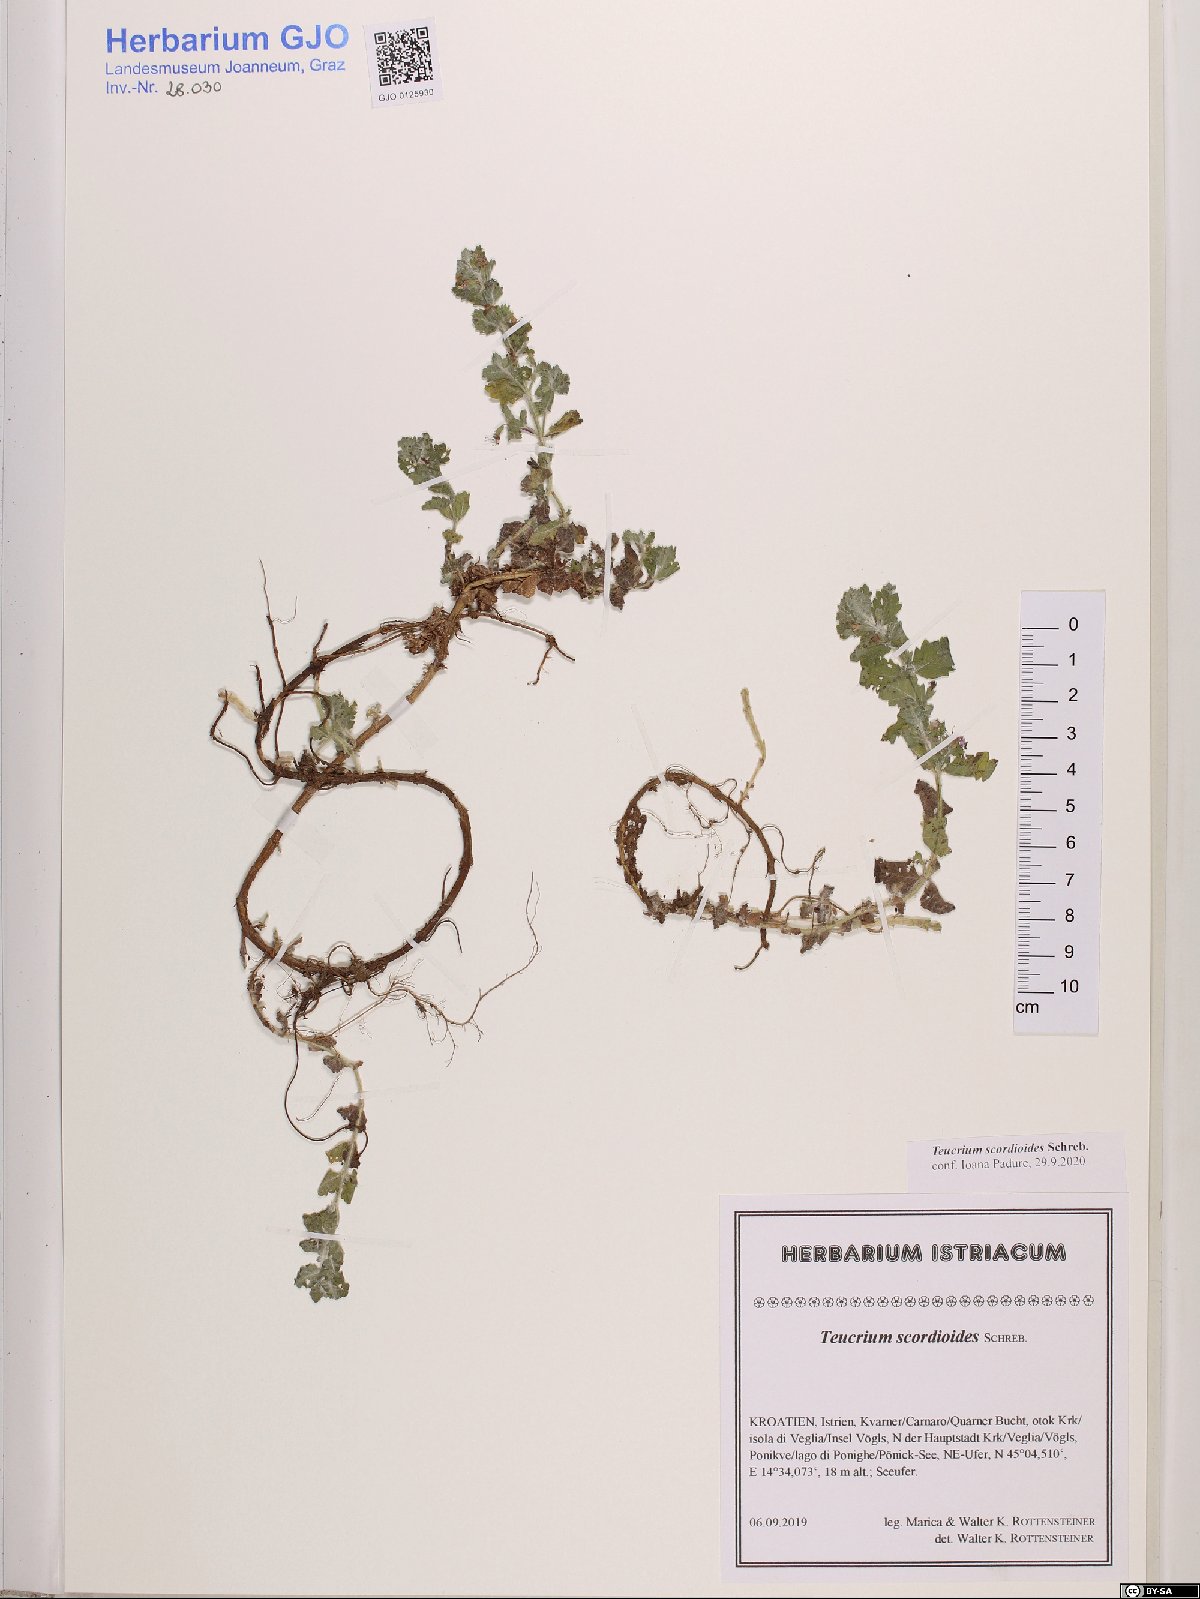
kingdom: Plantae
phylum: Tracheophyta
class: Magnoliopsida
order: Lamiales
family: Lamiaceae
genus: Teucrium
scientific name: Teucrium scordium
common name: Water germander
